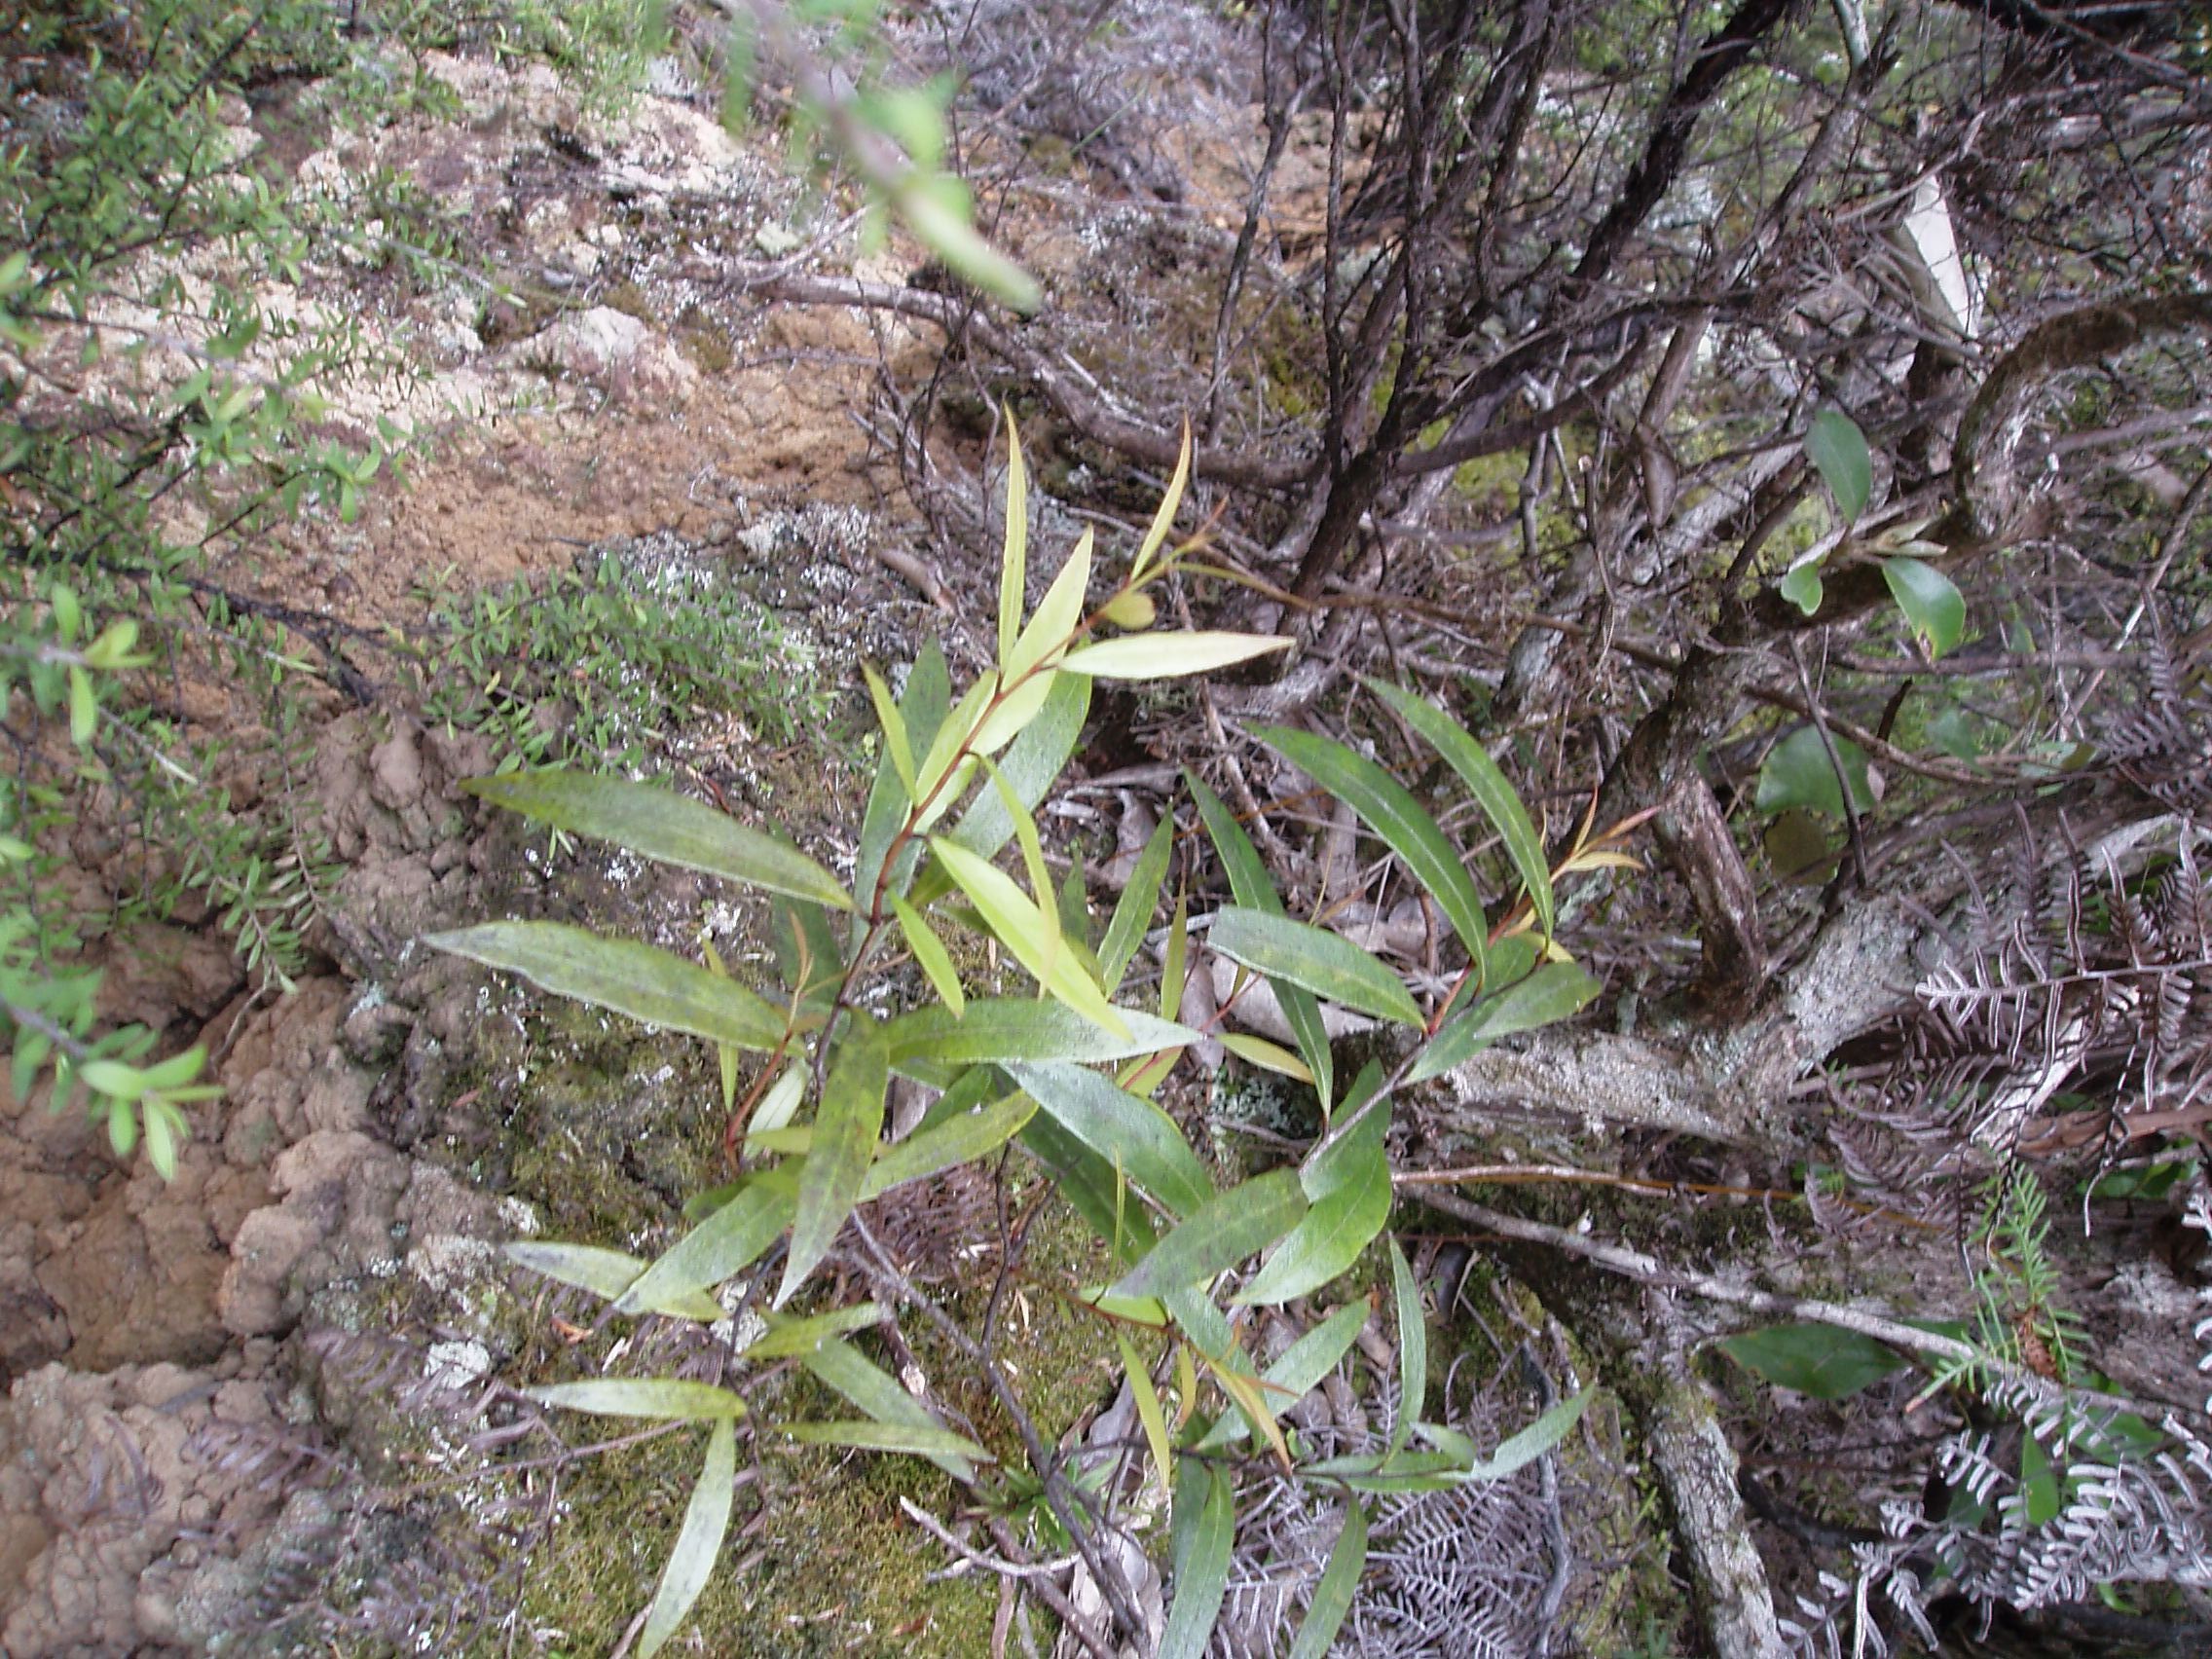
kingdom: Plantae
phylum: Tracheophyta
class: Magnoliopsida
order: Santalales
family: Nanodeaceae
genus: Mida
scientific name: Mida salicifolia
